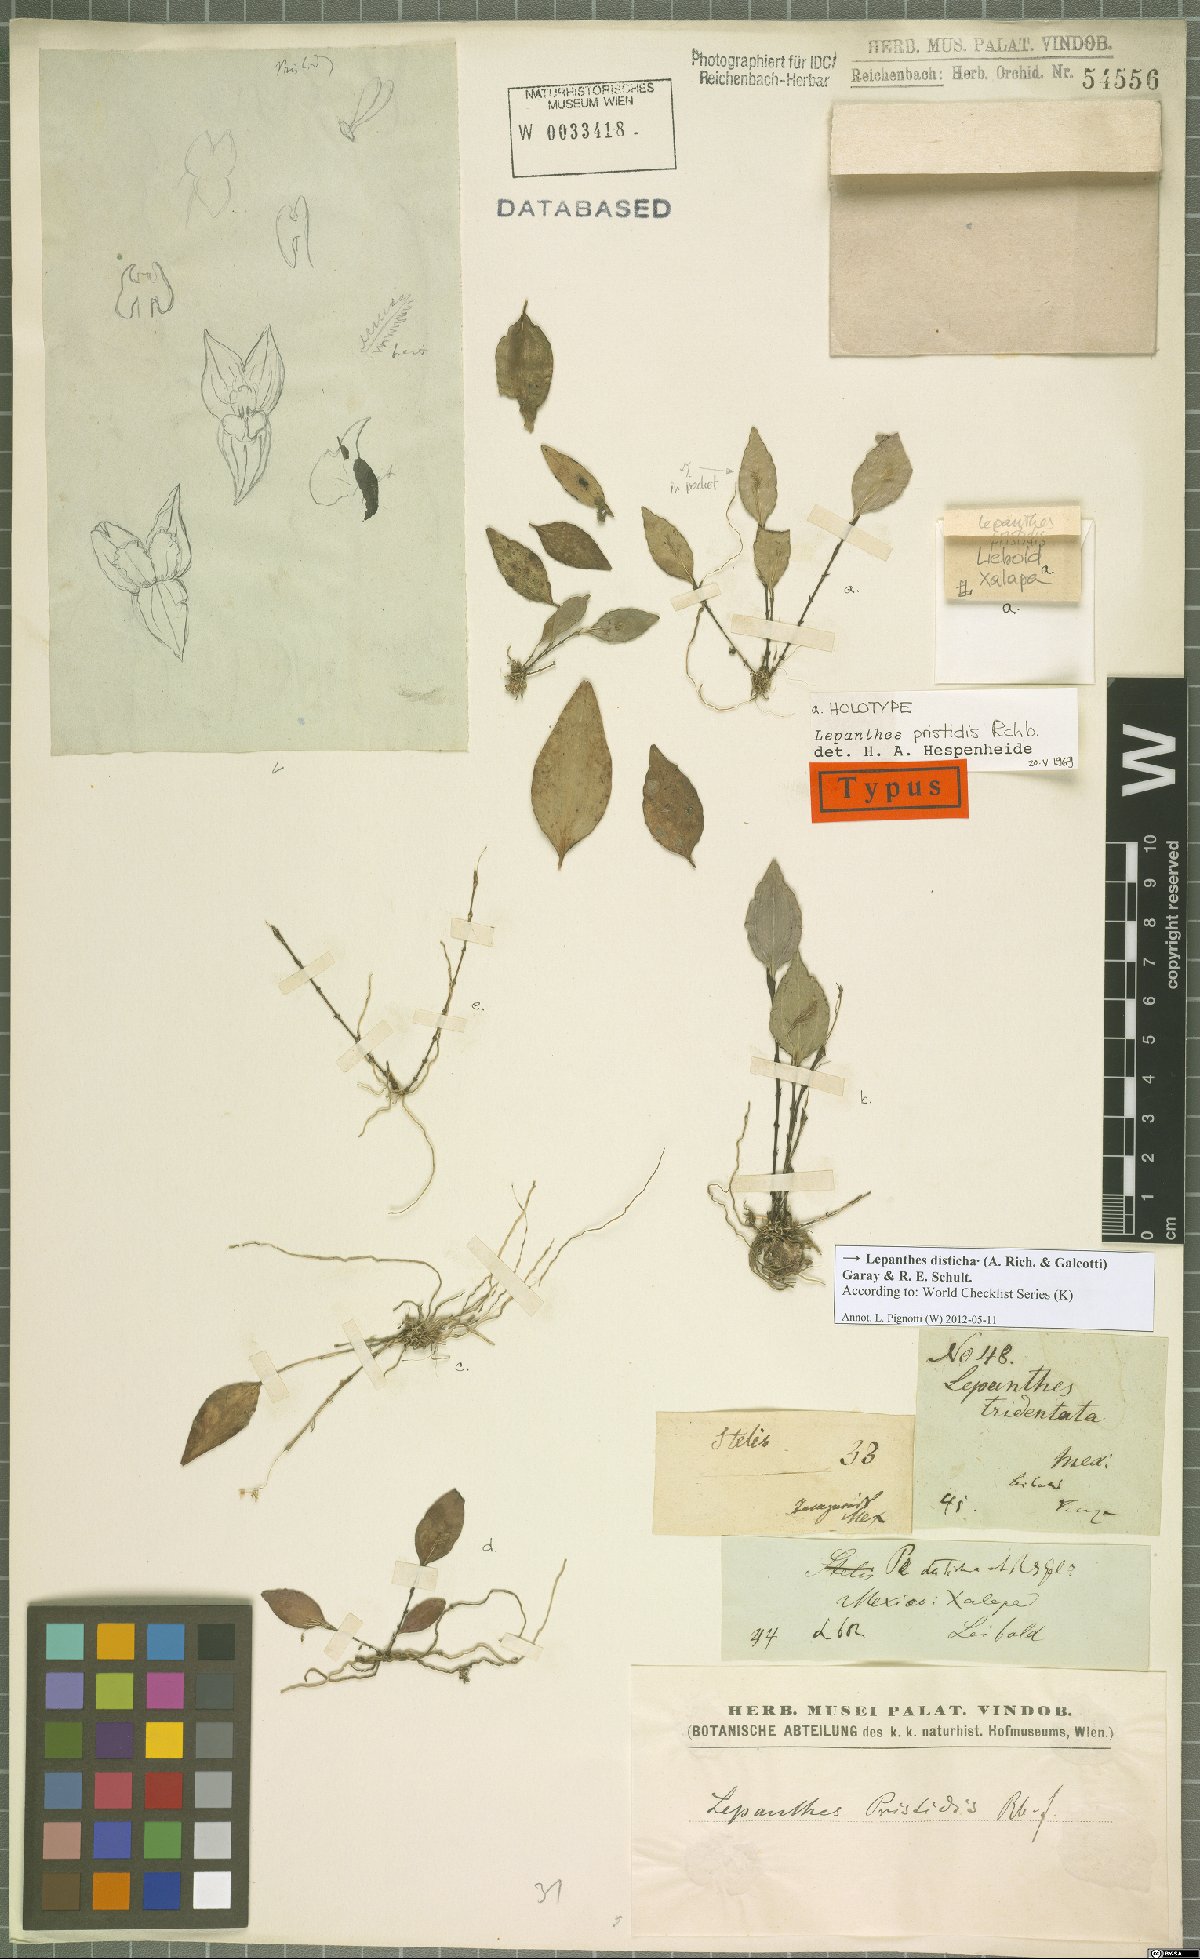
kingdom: Plantae
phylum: Tracheophyta
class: Liliopsida
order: Asparagales
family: Orchidaceae
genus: Lepanthes
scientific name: Lepanthes disticha
